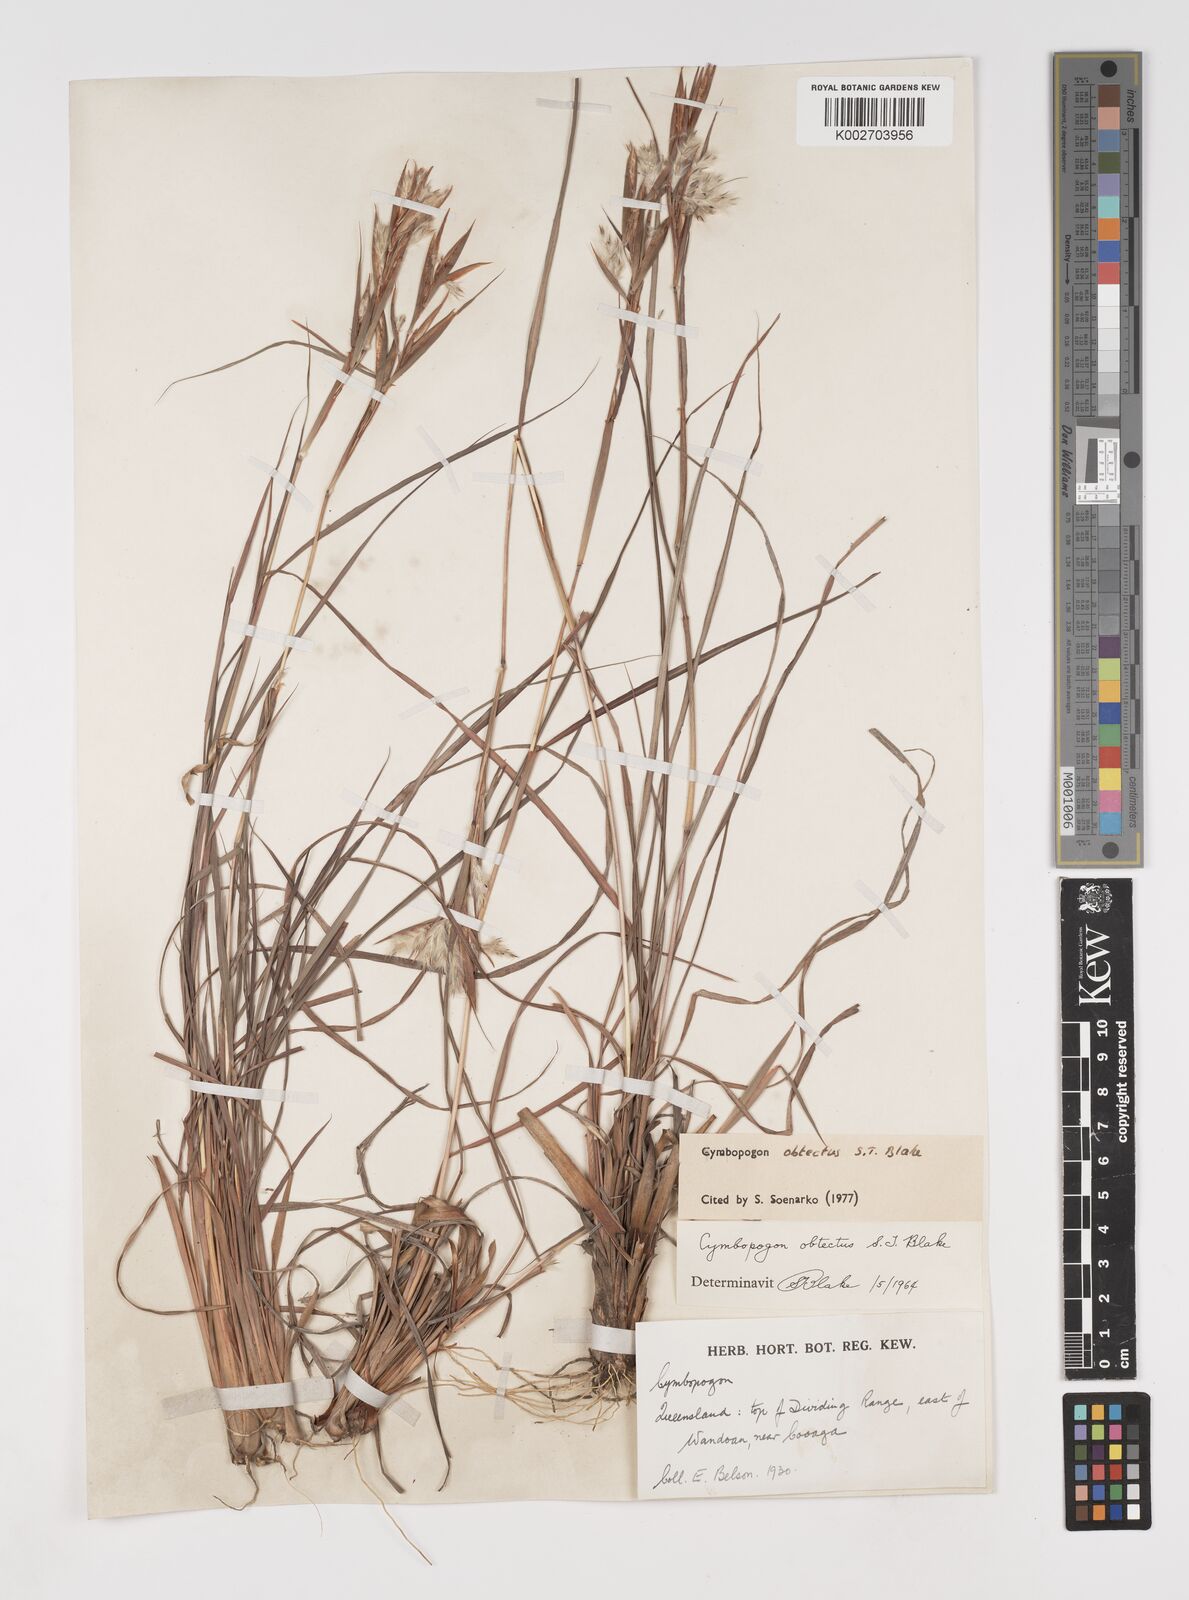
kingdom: Plantae
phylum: Tracheophyta
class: Liliopsida
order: Poales
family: Poaceae
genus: Cymbopogon
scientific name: Cymbopogon obtectus
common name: Silky heads
